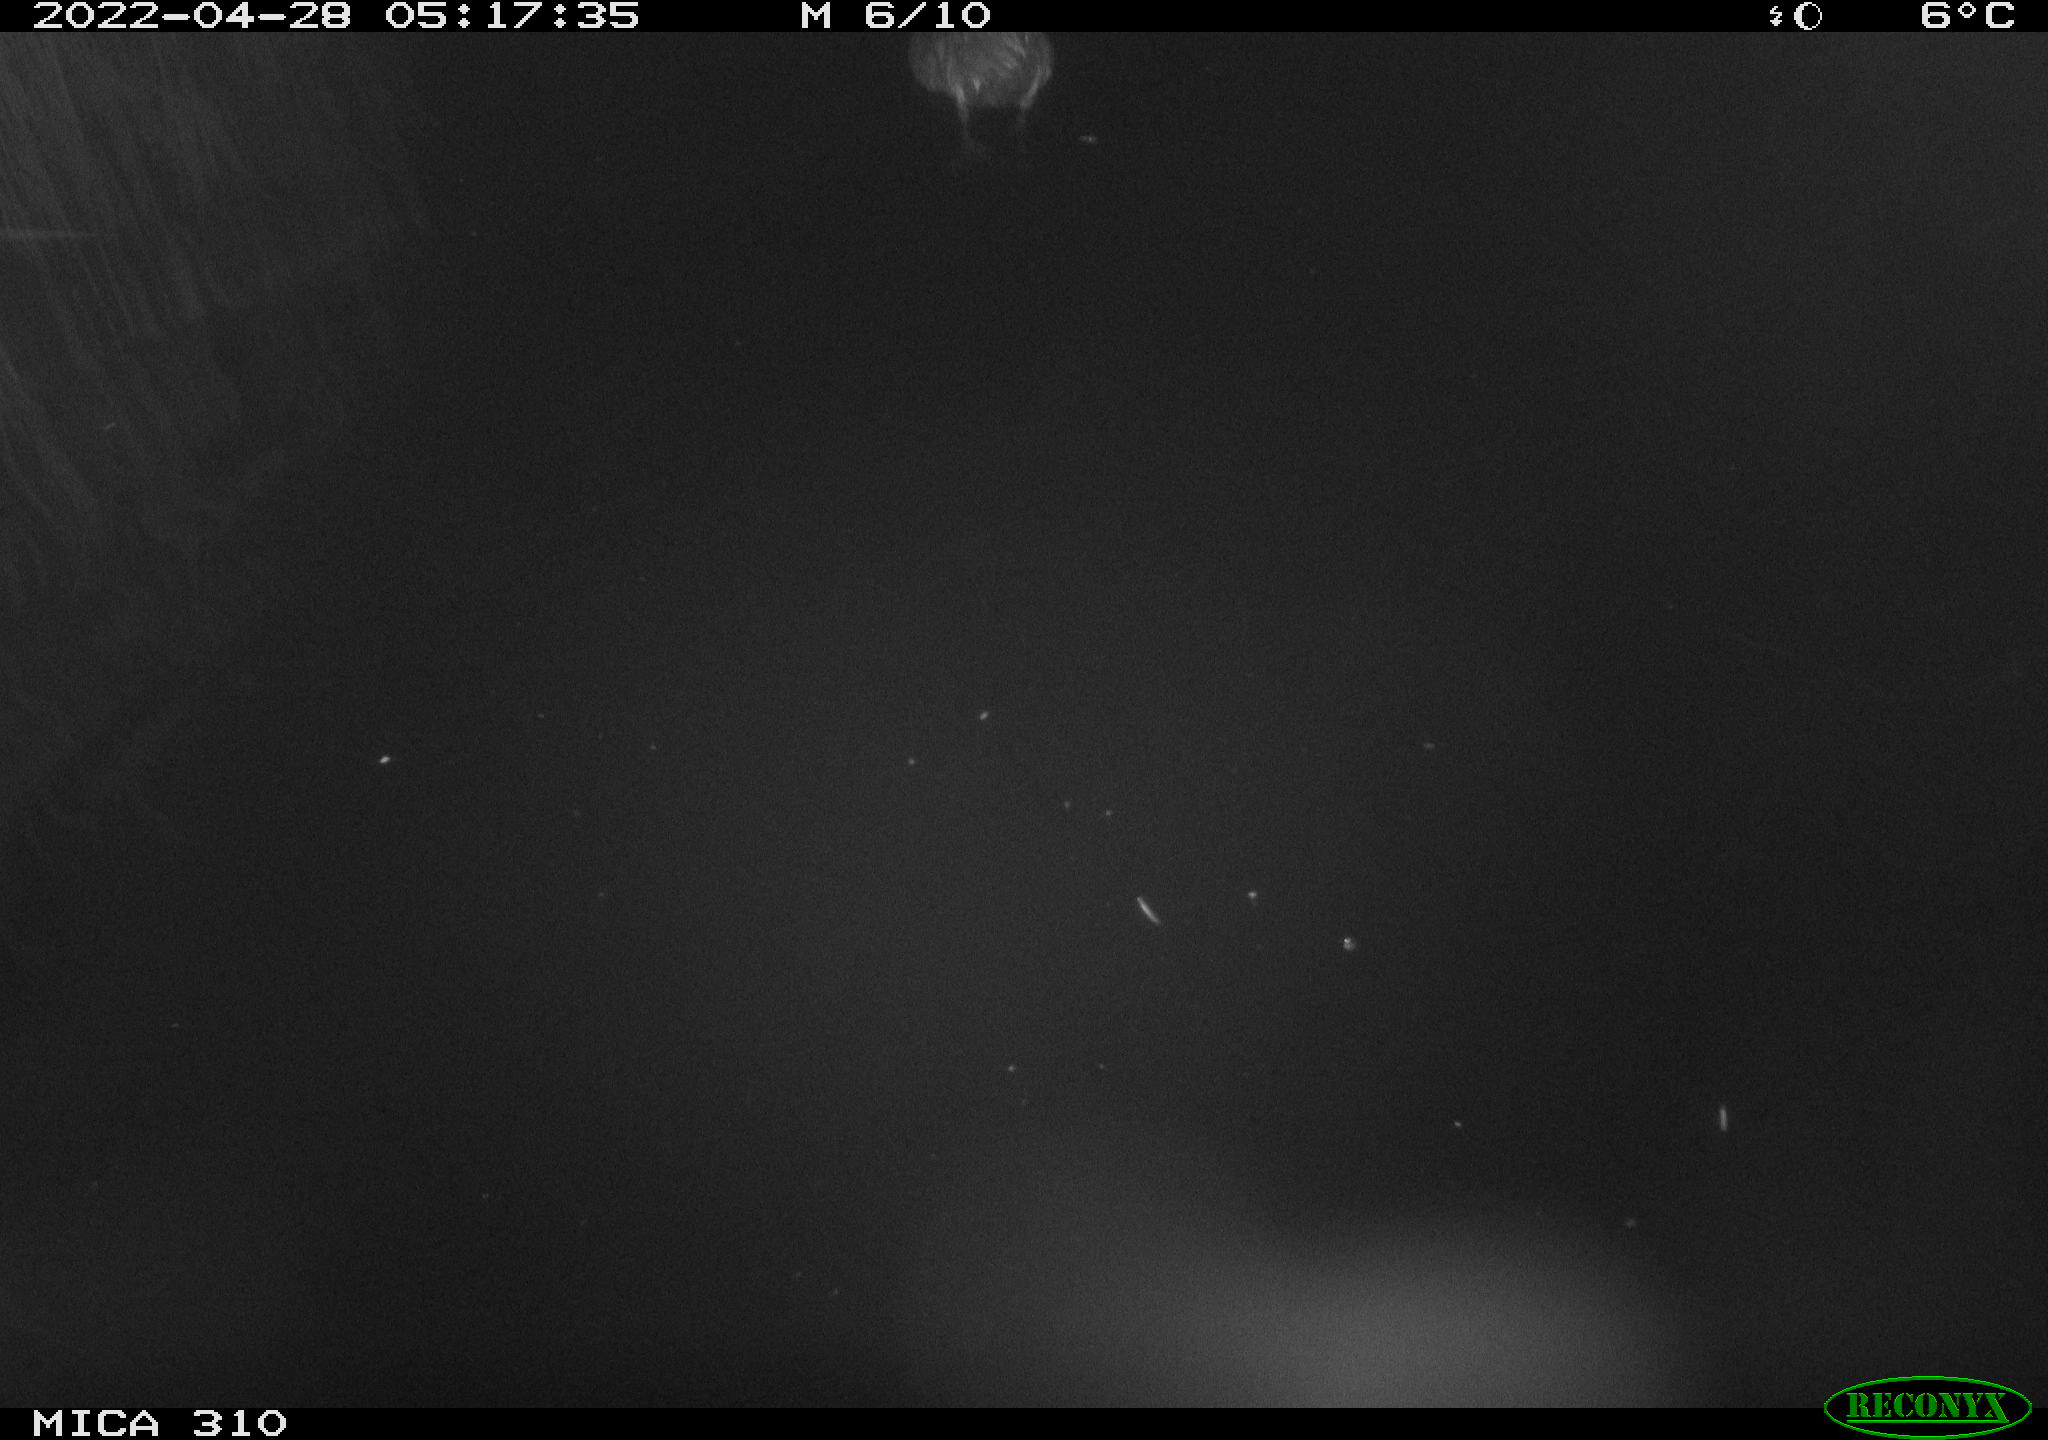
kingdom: Animalia
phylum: Chordata
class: Aves
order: Pelecaniformes
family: Ardeidae
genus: Ardea
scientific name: Ardea
